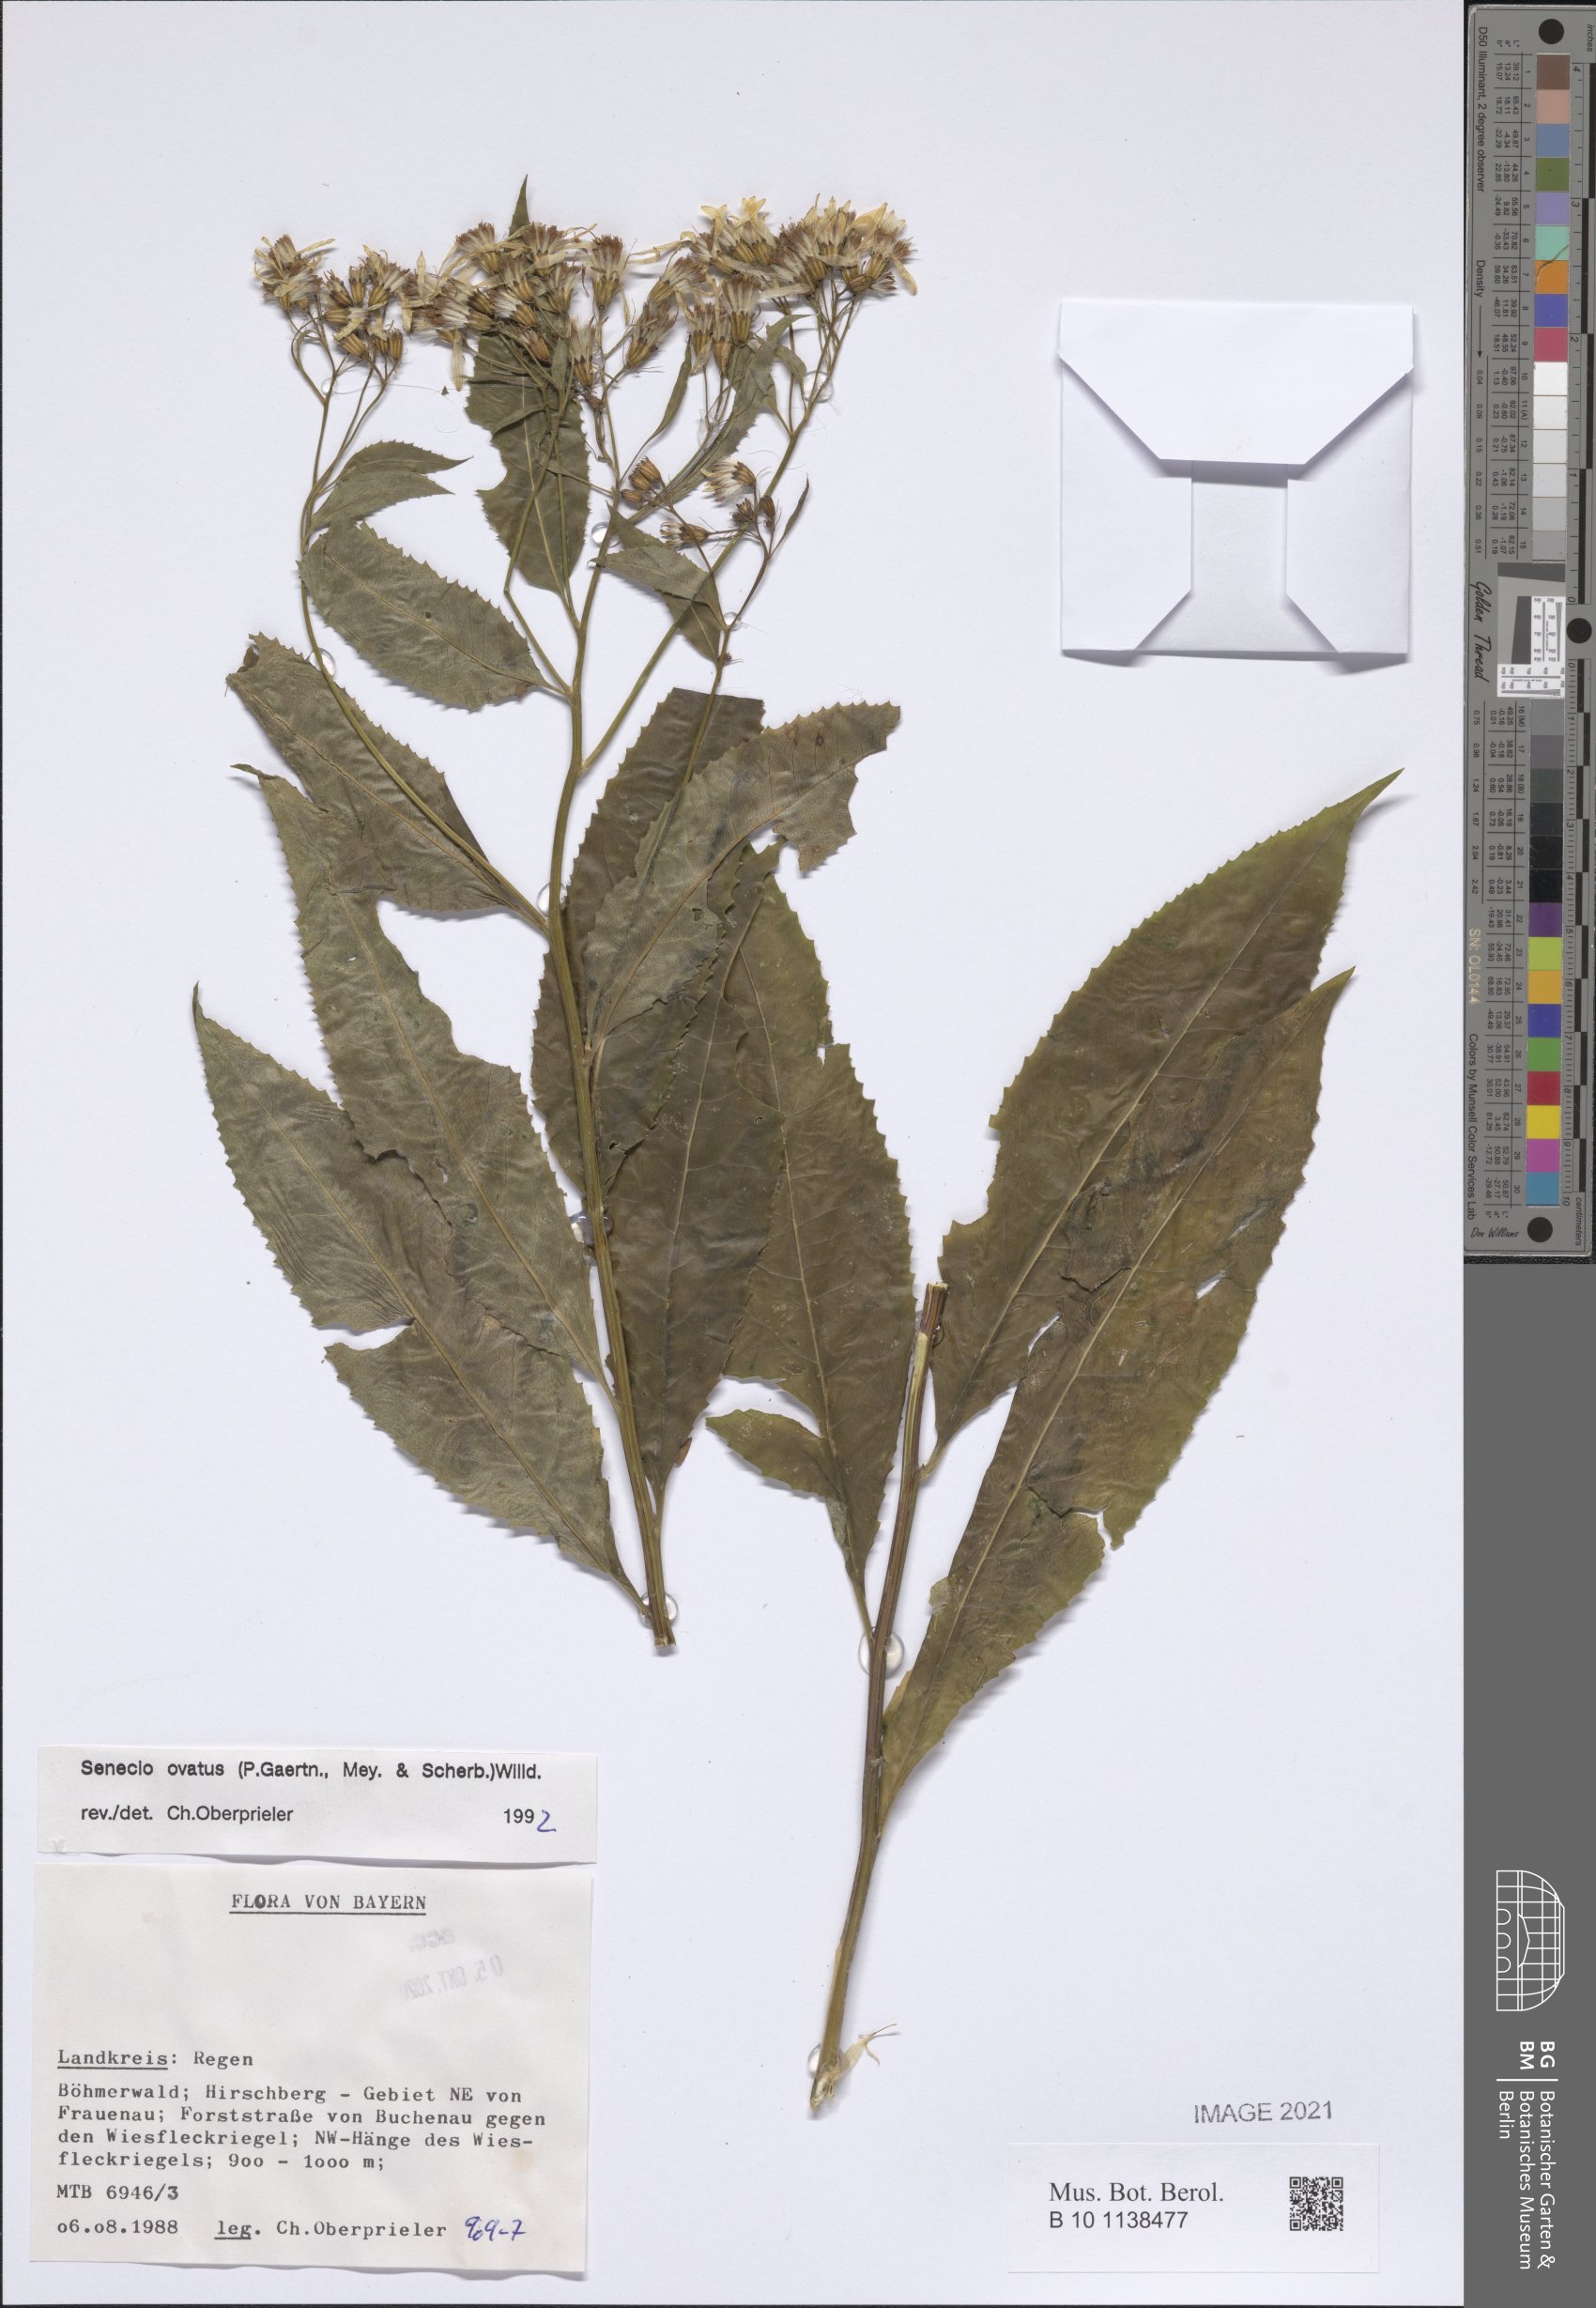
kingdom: Plantae
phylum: Tracheophyta
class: Magnoliopsida
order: Asterales
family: Asteraceae
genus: Senecio
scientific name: Senecio ovatus
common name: Wood ragwort
